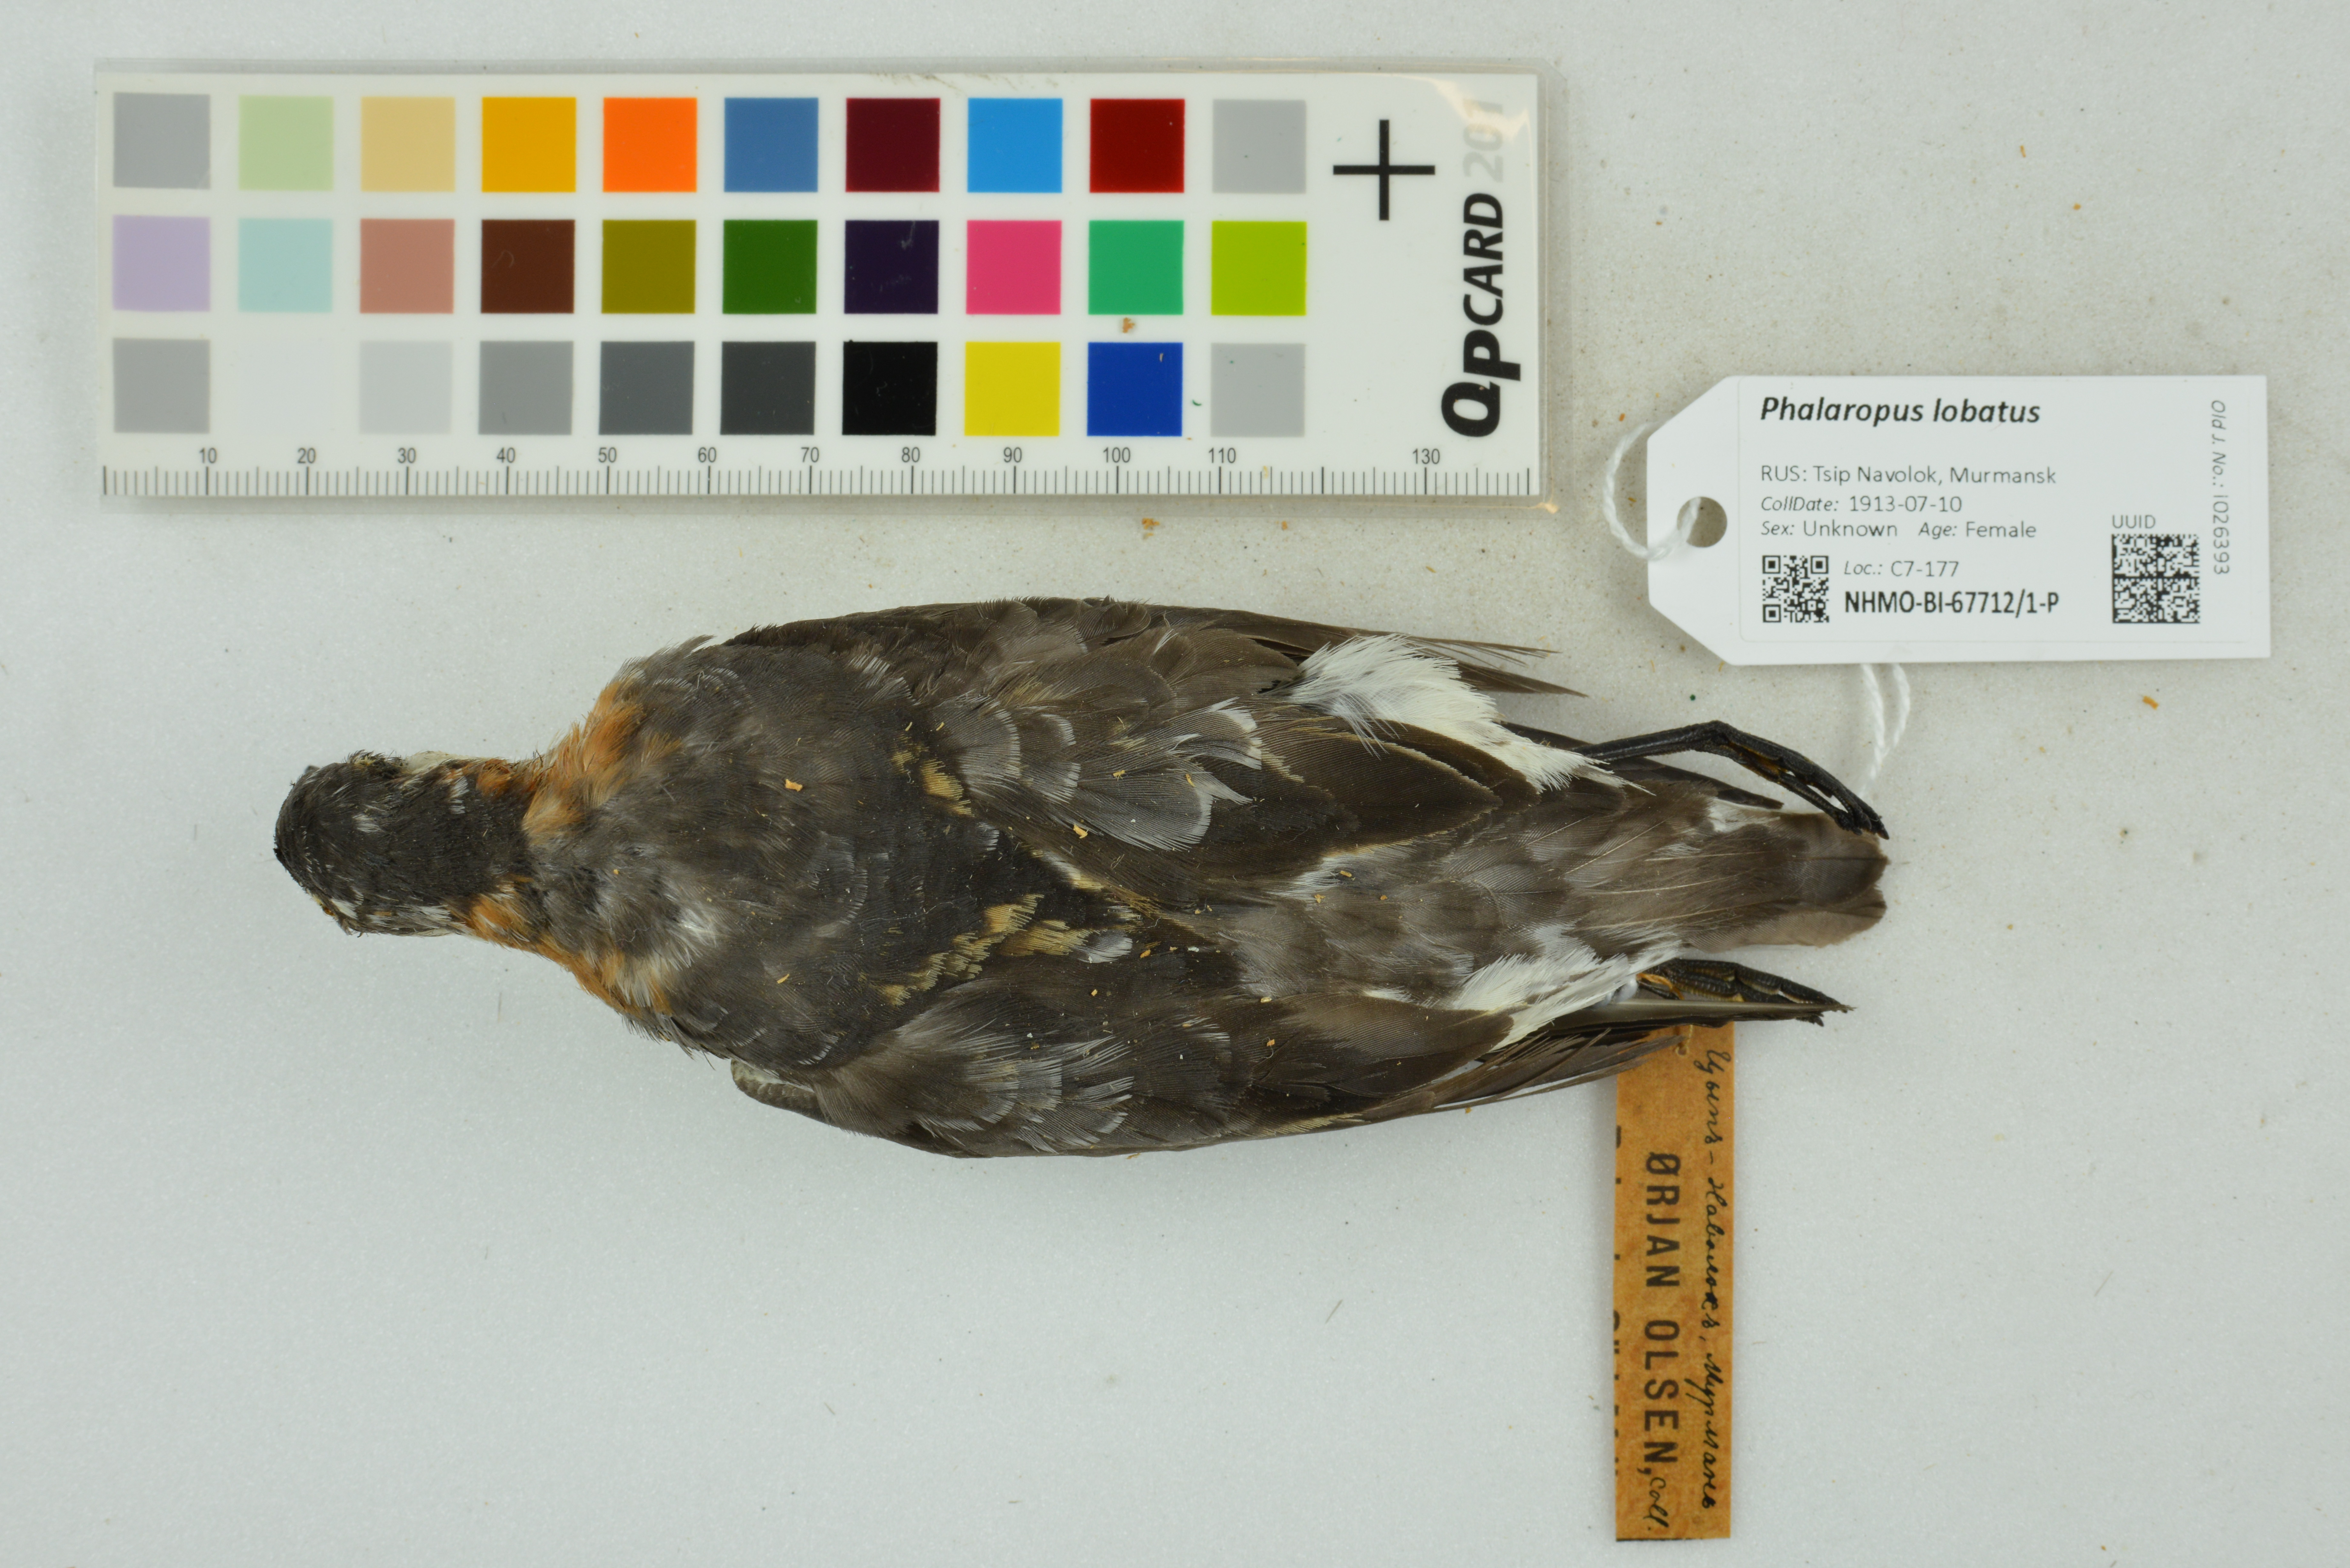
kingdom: Animalia
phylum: Chordata
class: Aves
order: Charadriiformes
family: Scolopacidae
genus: Phalaropus
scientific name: Phalaropus lobatus
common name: Red-necked phalarope
